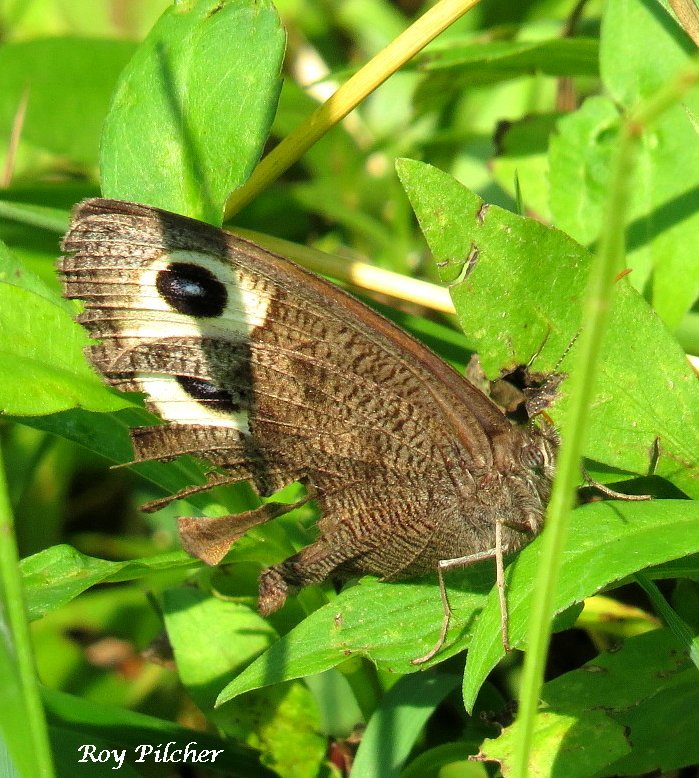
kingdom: Animalia
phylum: Arthropoda
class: Insecta
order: Lepidoptera
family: Nymphalidae
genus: Cercyonis
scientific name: Cercyonis pegala
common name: Common Wood-Nymph
